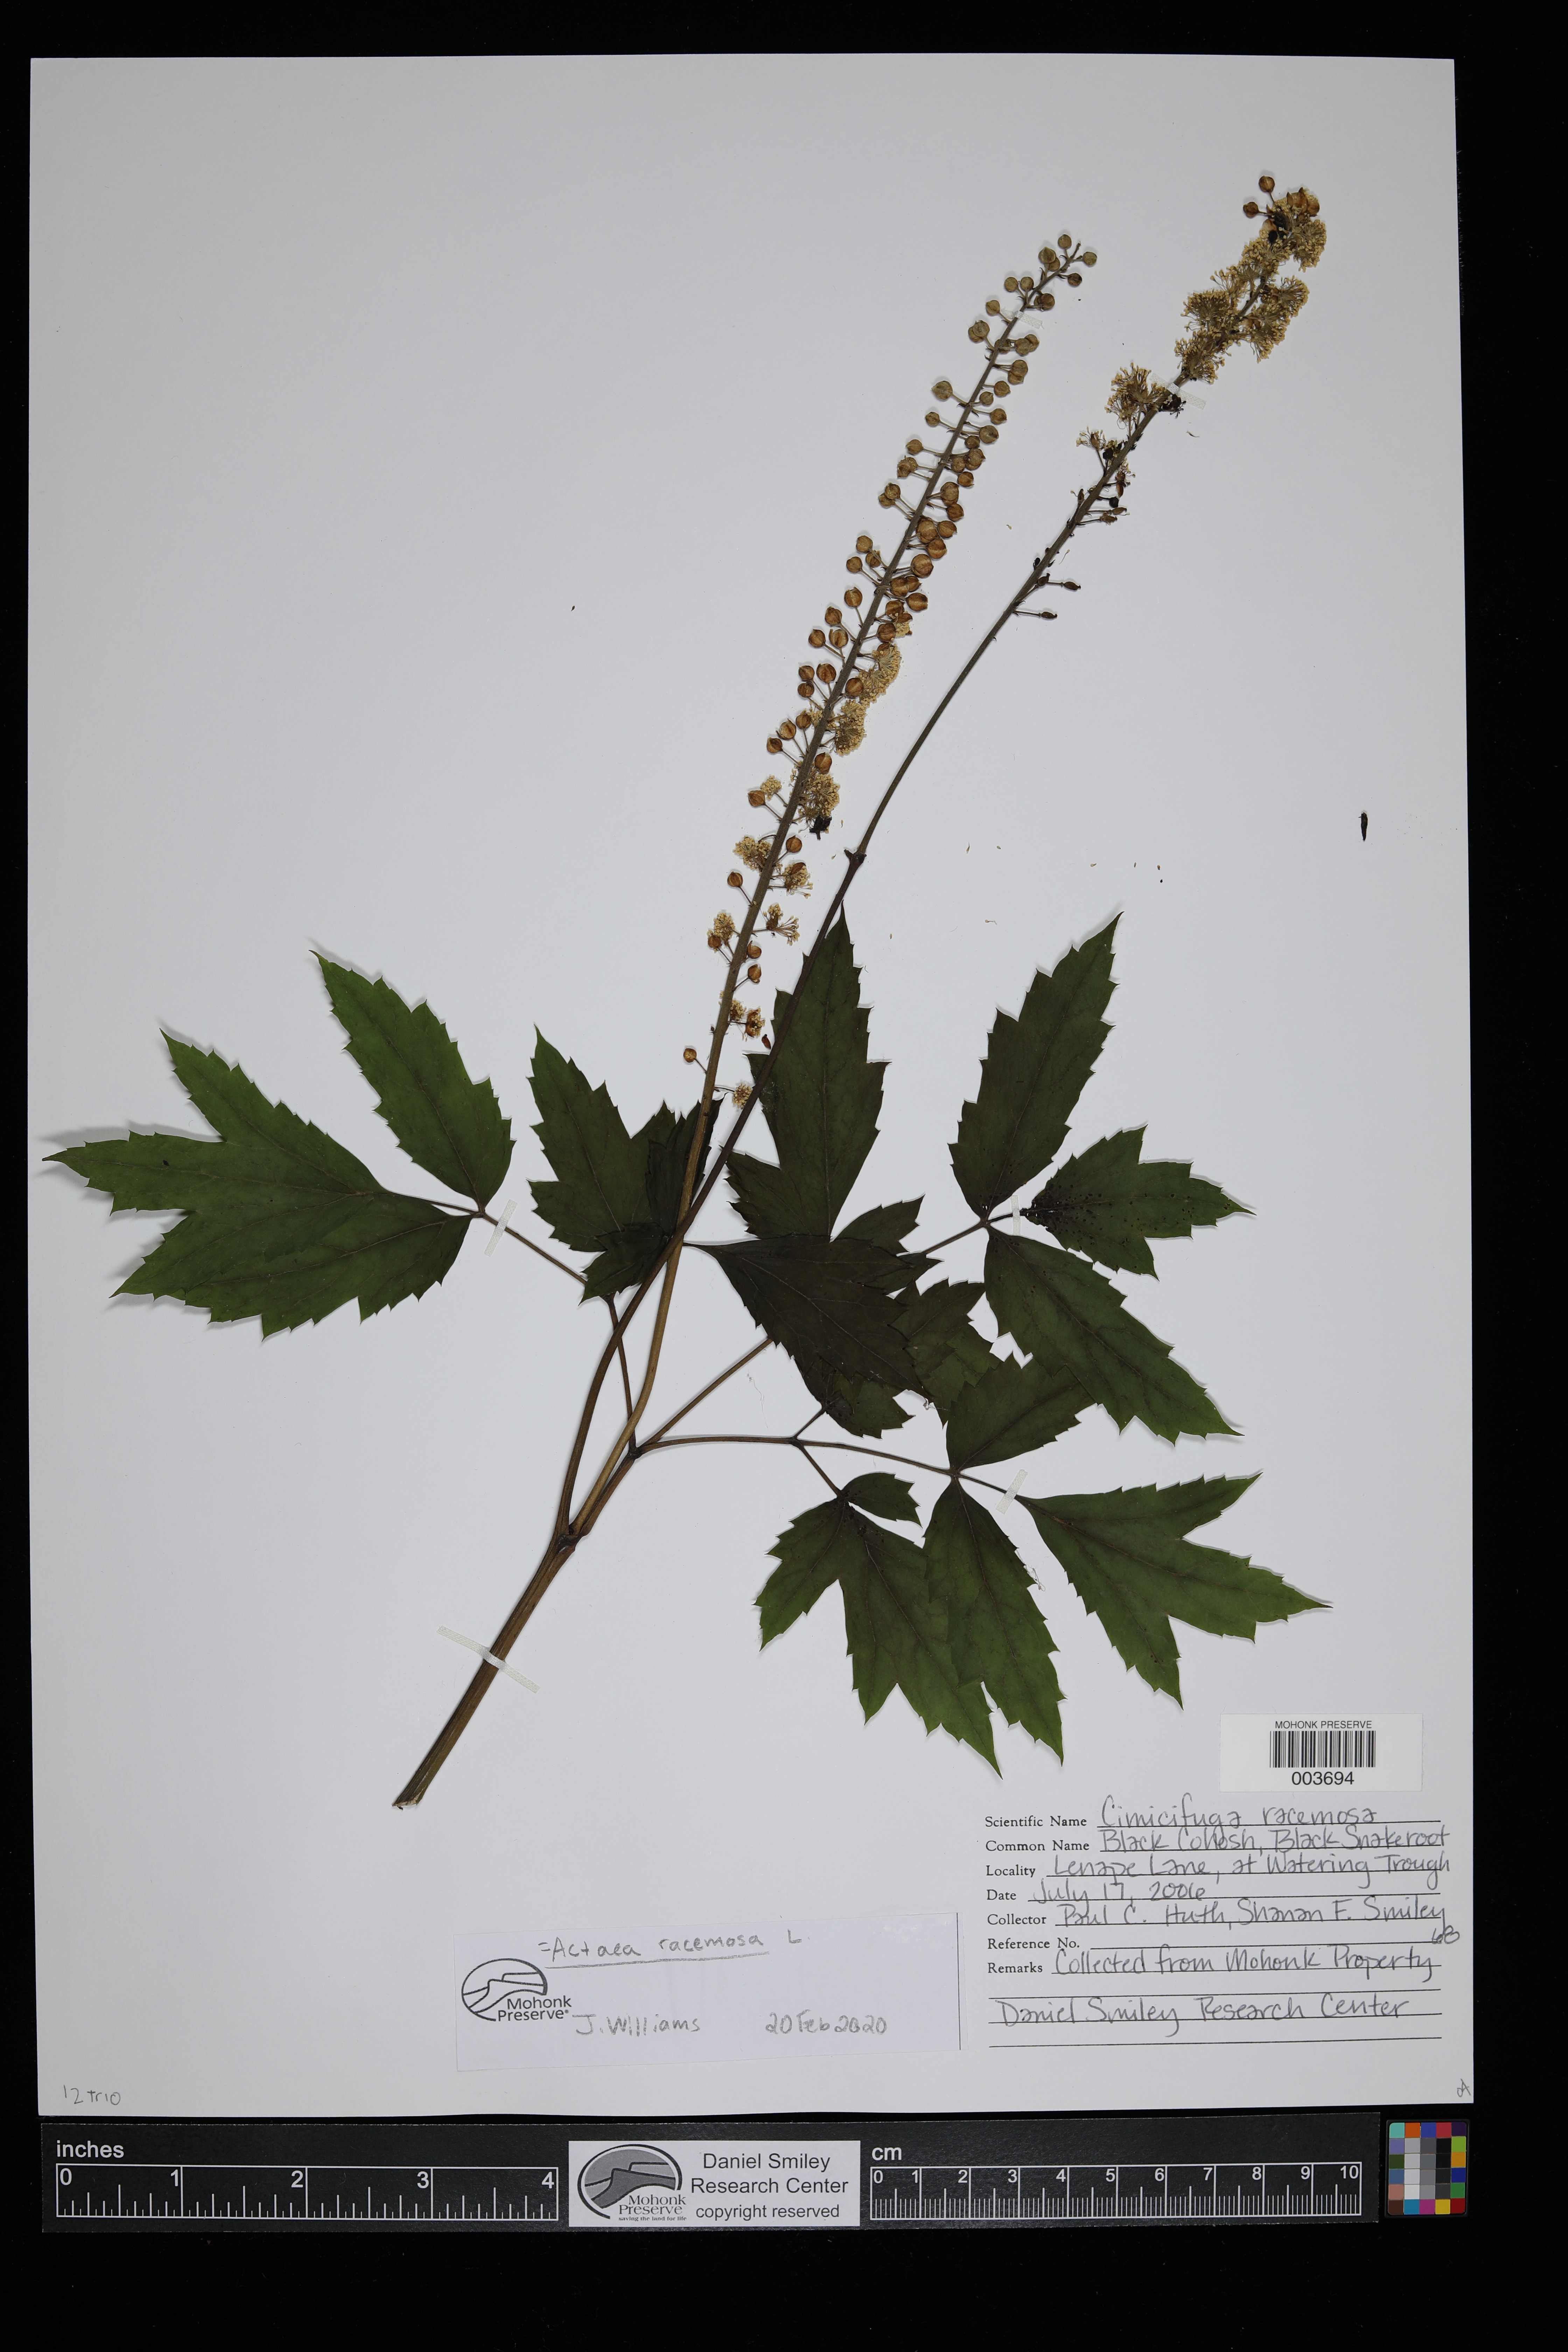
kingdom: Plantae
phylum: Tracheophyta
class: Magnoliopsida
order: Ranunculales
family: Ranunculaceae
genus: Actaea
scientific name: Actaea racemosa
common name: Black cohosh
